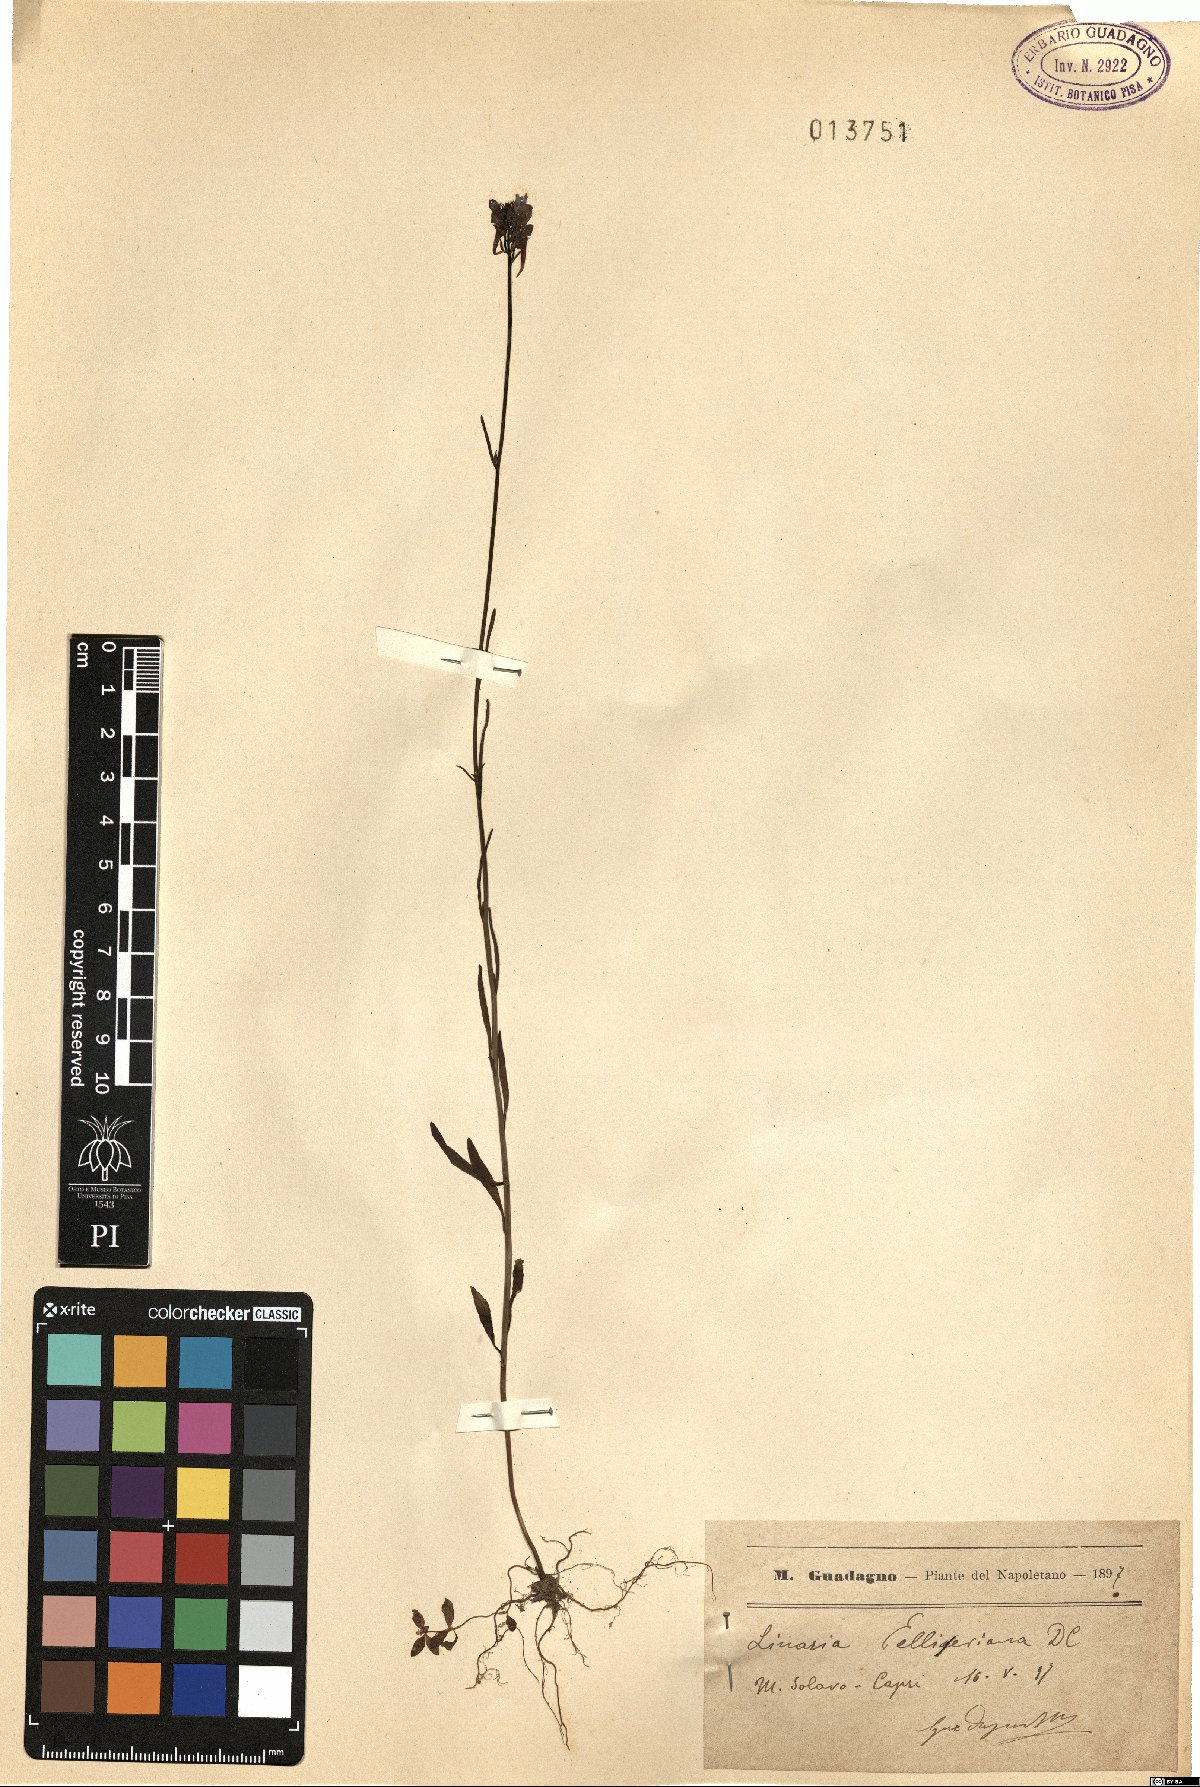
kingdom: Plantae
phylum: Tracheophyta
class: Magnoliopsida
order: Lamiales
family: Plantaginaceae
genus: Linaria
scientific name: Linaria pelisseriana
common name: Jersey toadflax
